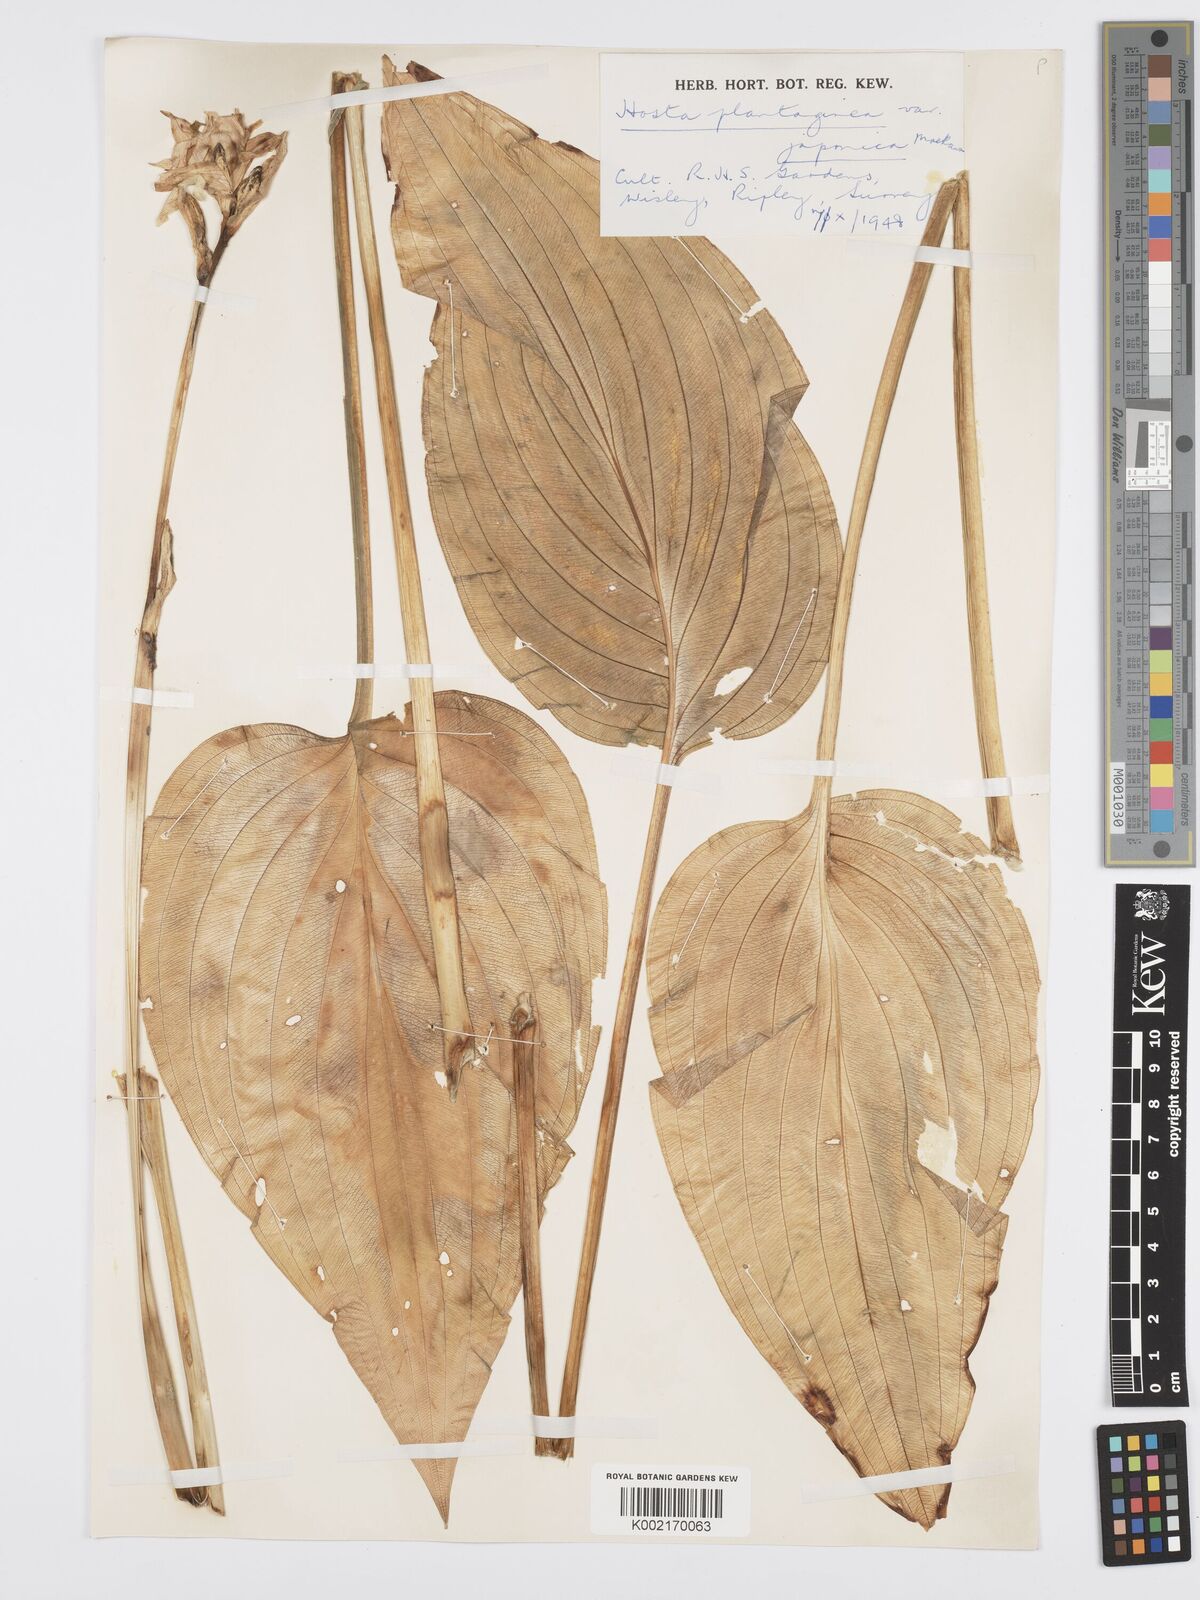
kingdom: Plantae
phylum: Tracheophyta
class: Liliopsida
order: Asparagales
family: Asparagaceae
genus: Hosta
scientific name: Hosta plantaginea
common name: August-lily
